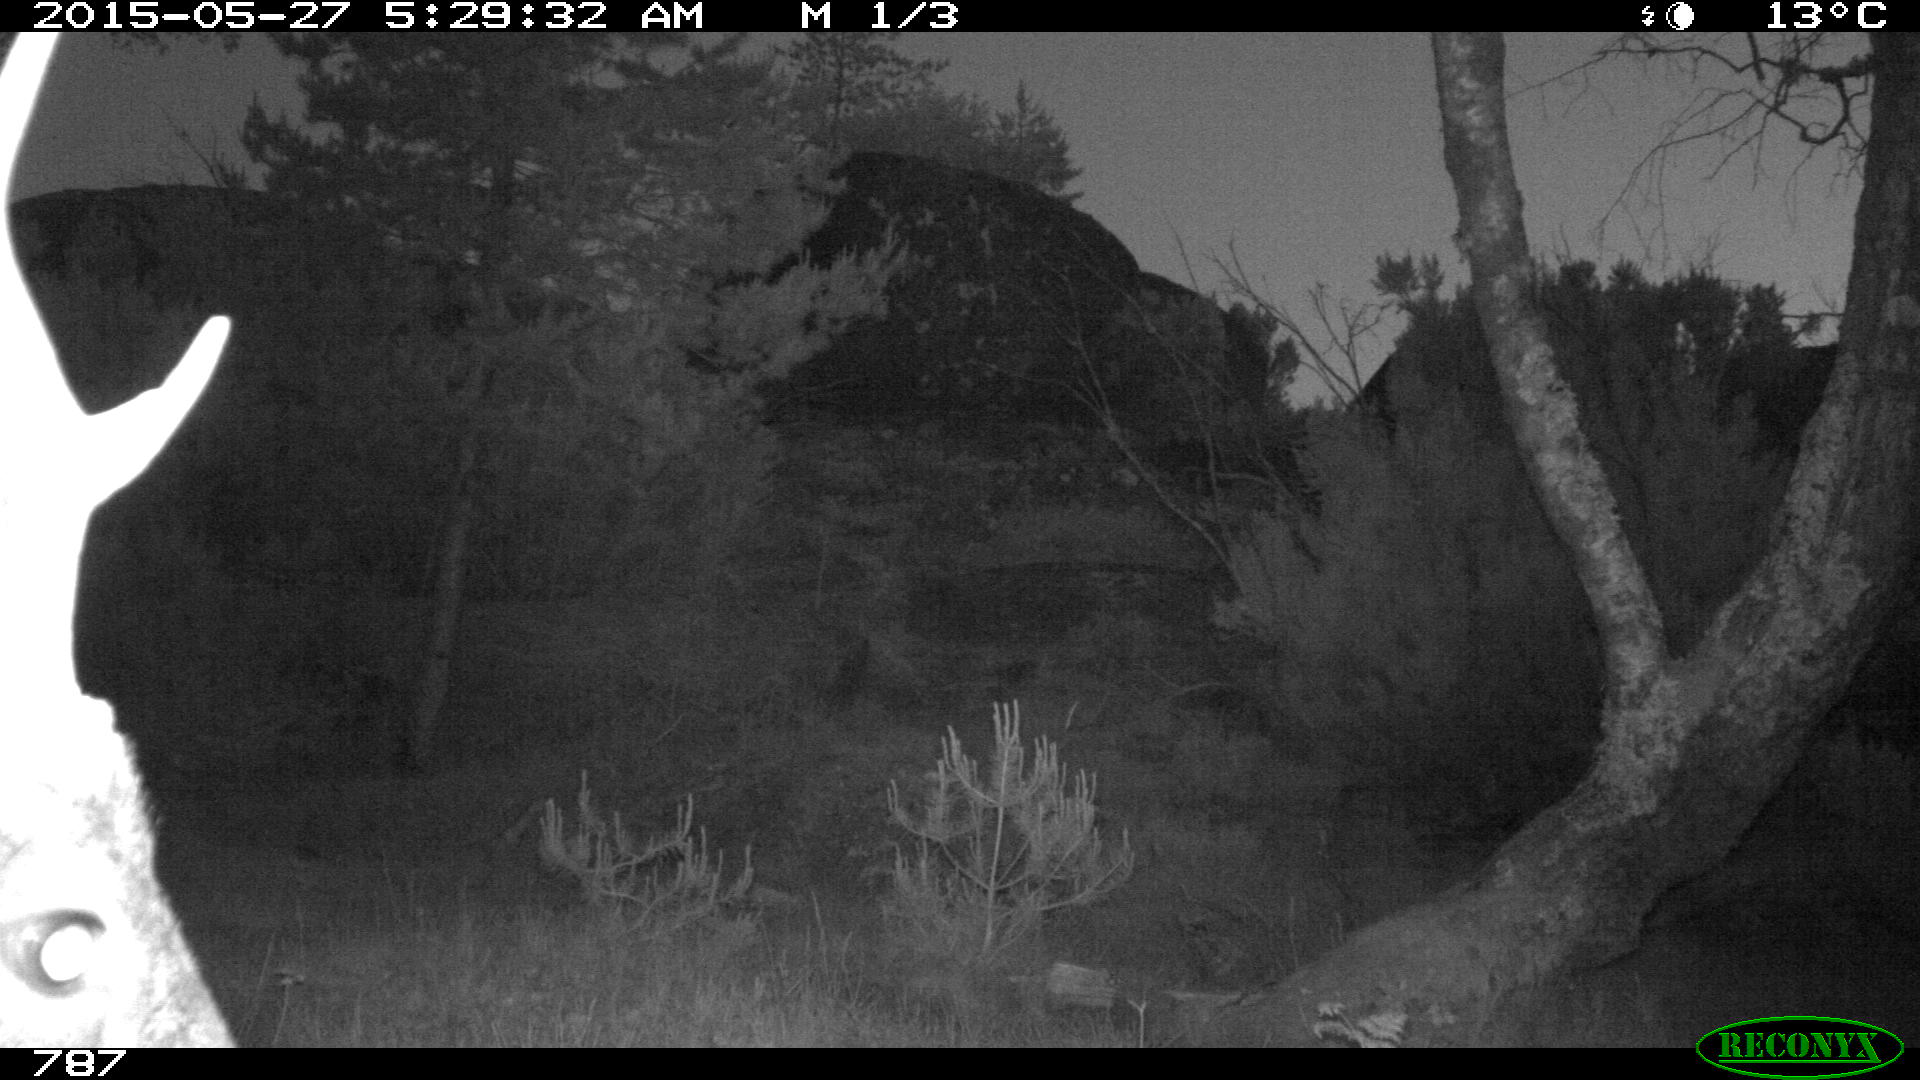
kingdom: Animalia
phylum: Chordata
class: Mammalia
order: Artiodactyla
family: Cervidae
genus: Capreolus
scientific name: Capreolus capreolus
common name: Western roe deer
